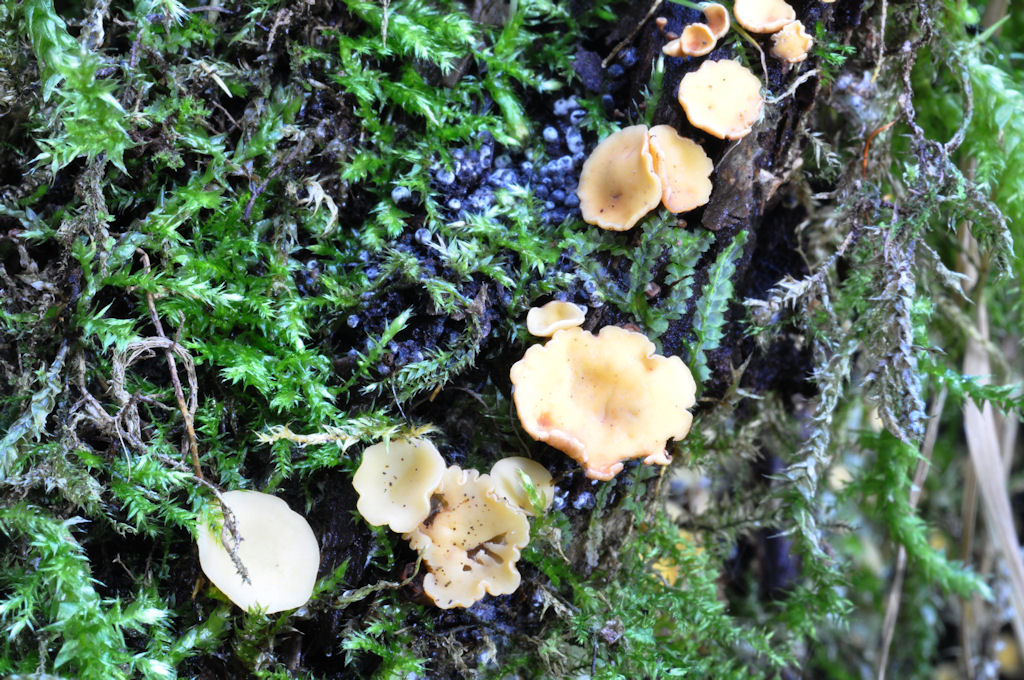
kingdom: Fungi
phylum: Ascomycota
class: Leotiomycetes
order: Helotiales
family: Helotiaceae
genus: Hymenoscyphus
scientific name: Hymenoscyphus
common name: stilkskive
